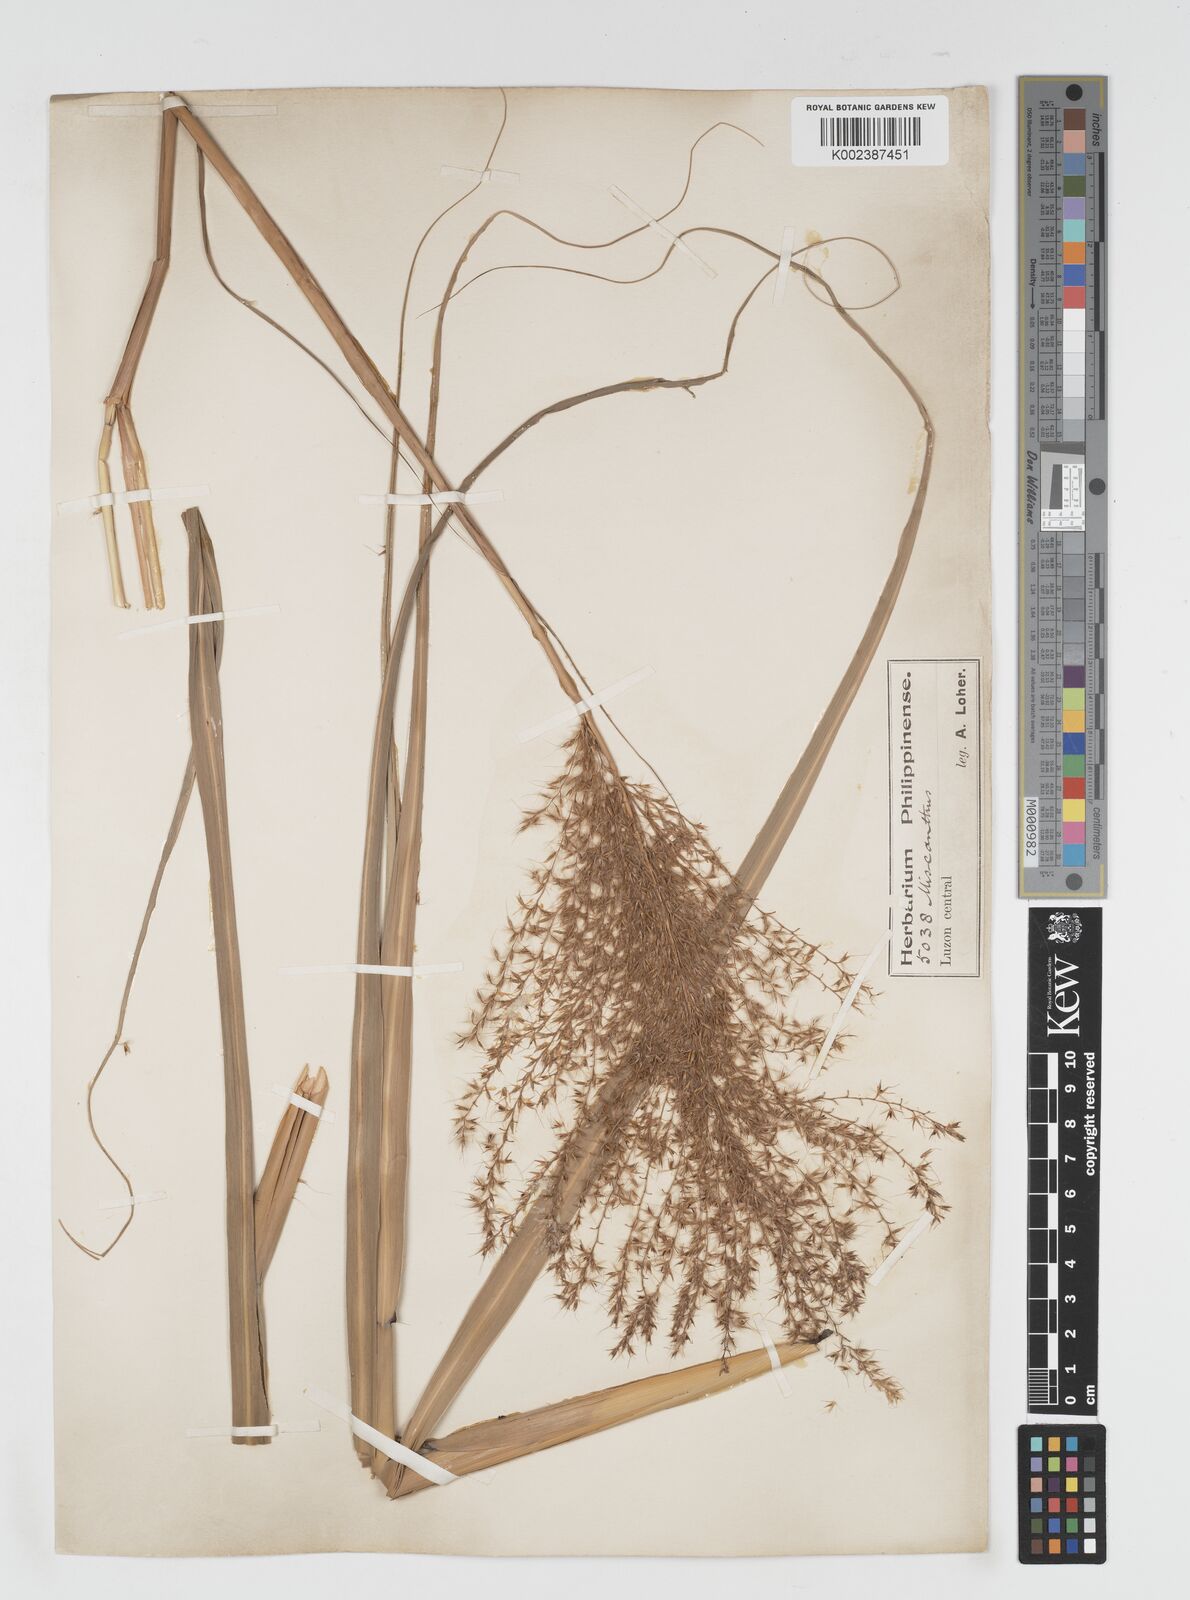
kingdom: Plantae
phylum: Tracheophyta
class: Liliopsida
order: Poales
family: Poaceae
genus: Miscanthus
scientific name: Miscanthus
